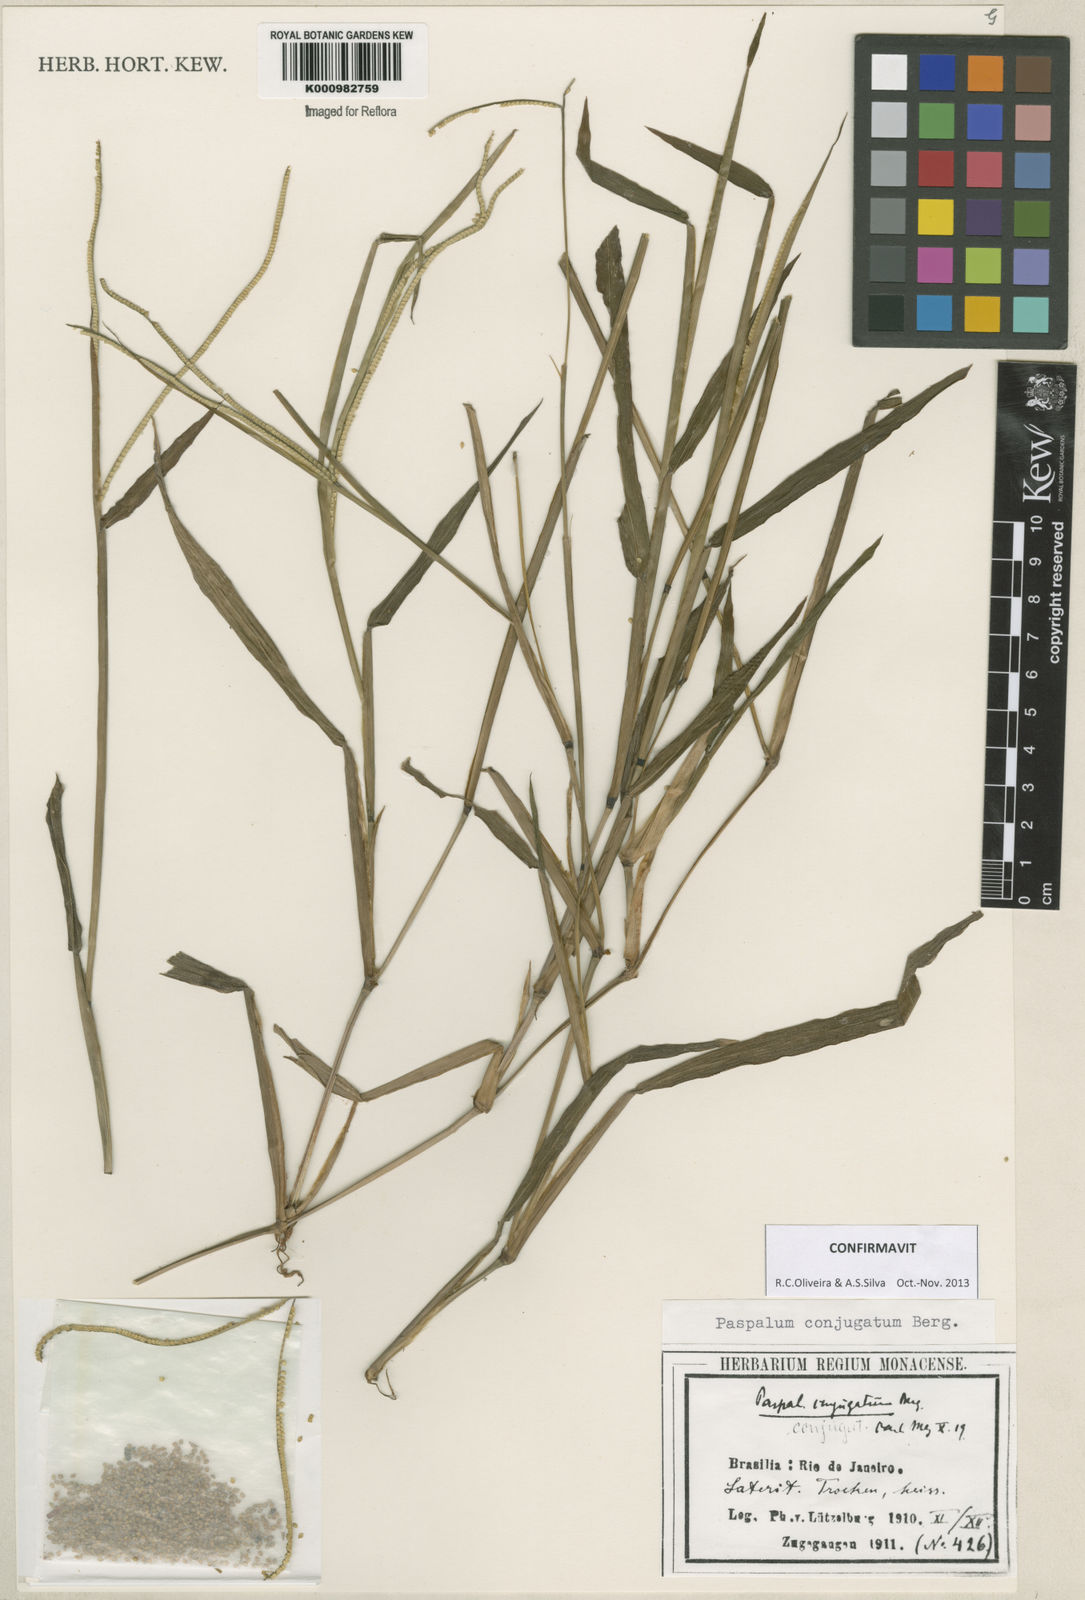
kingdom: Plantae
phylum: Tracheophyta
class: Liliopsida
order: Poales
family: Poaceae
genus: Paspalum
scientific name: Paspalum conjugatum
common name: Hilograss
